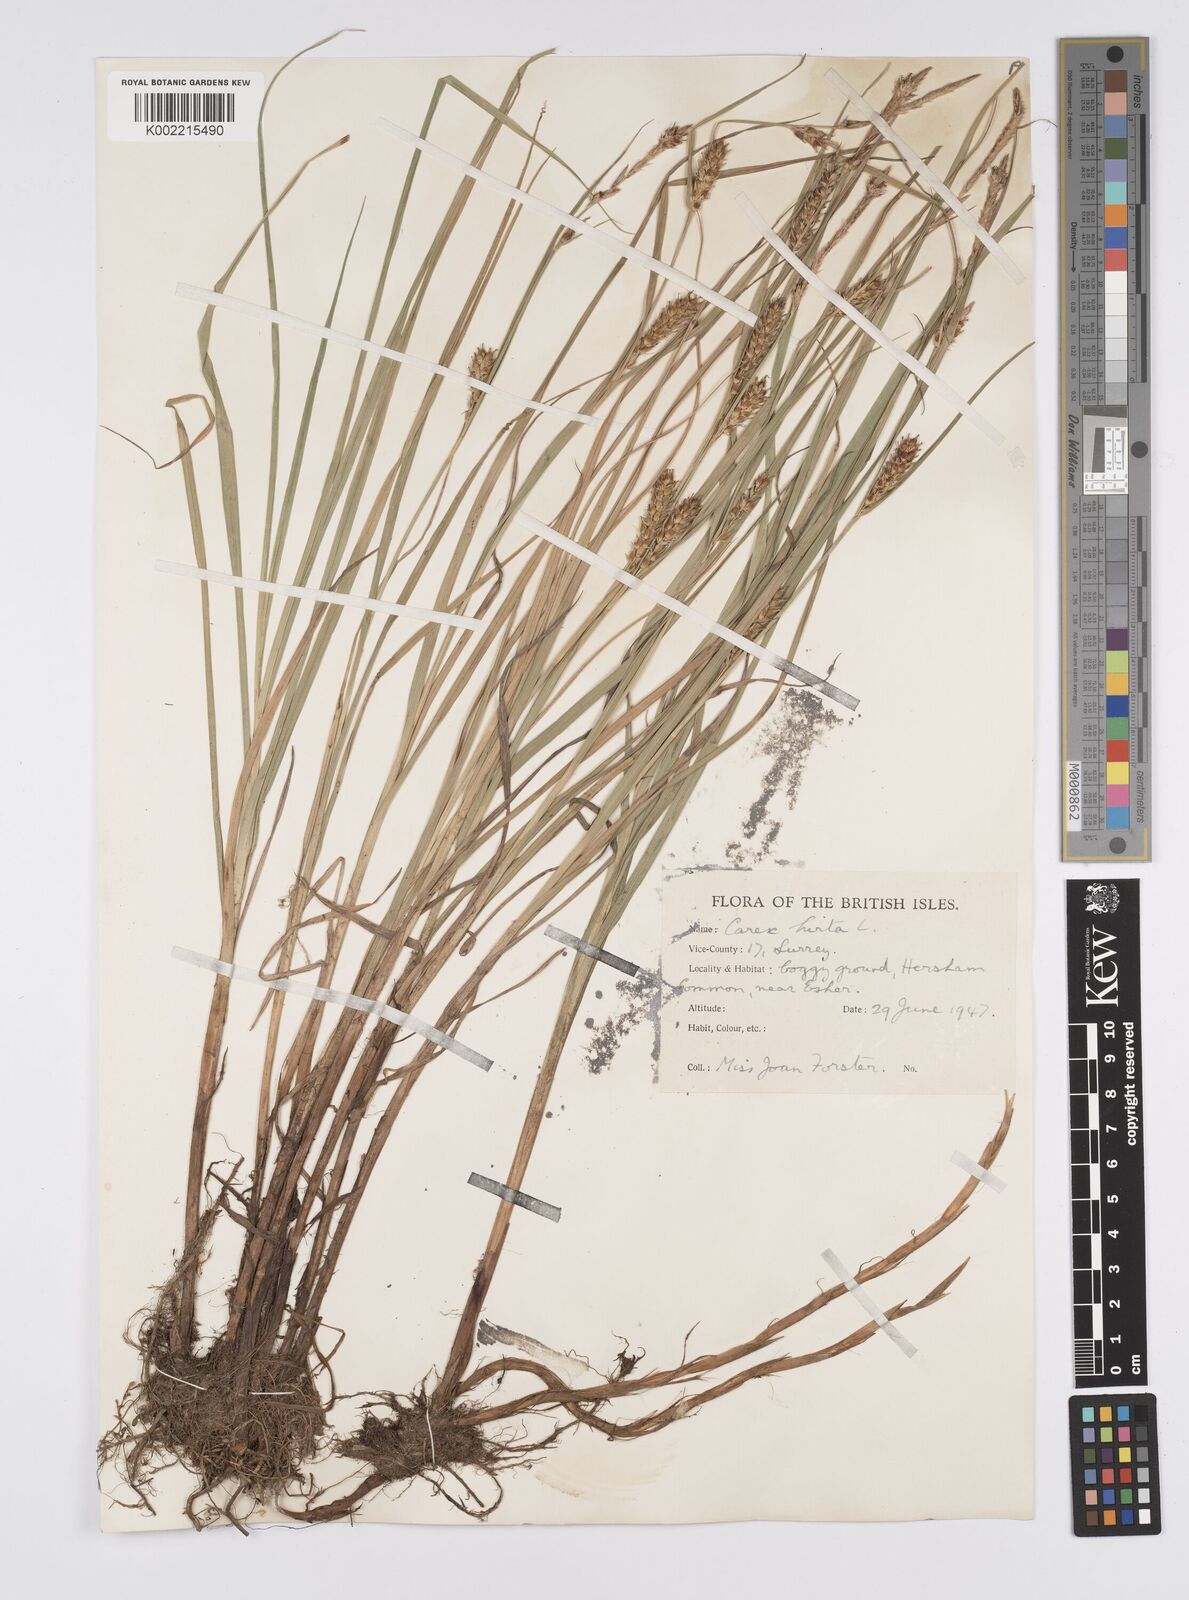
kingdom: Plantae
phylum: Tracheophyta
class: Liliopsida
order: Poales
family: Cyperaceae
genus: Carex
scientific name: Carex hirta
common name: Hairy sedge
